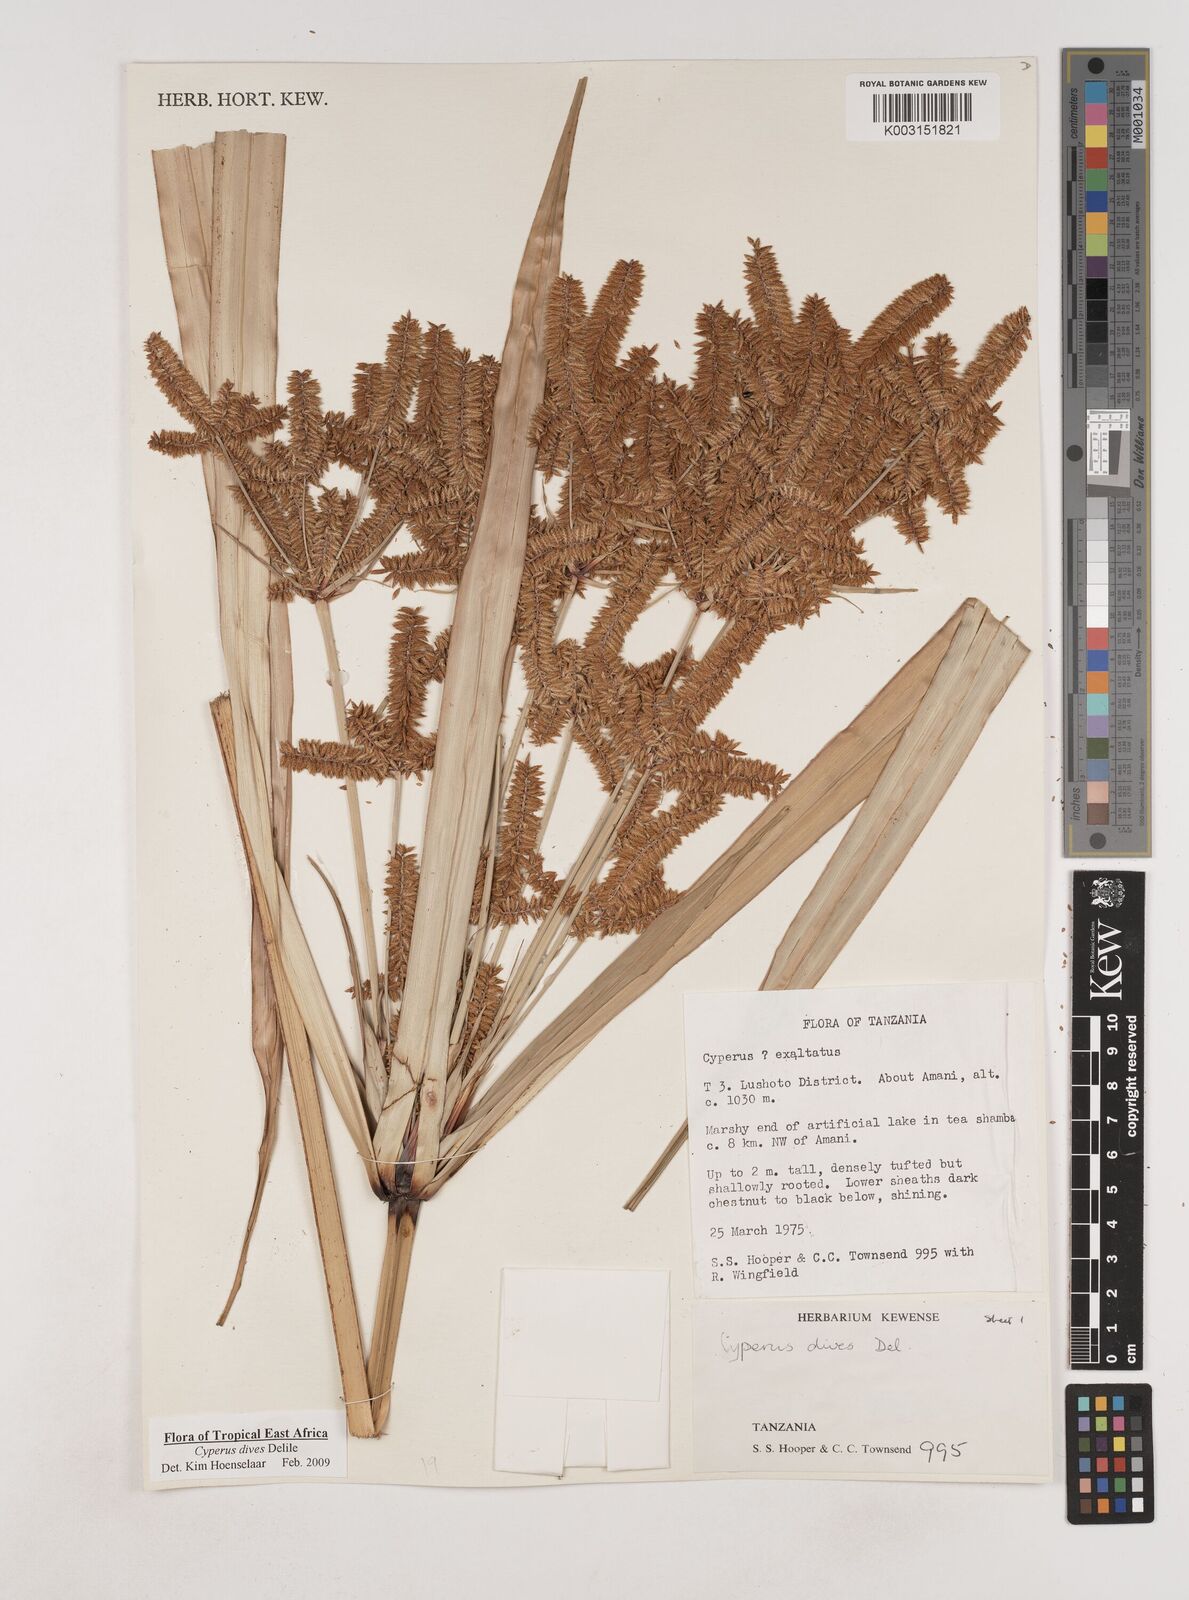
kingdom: Plantae
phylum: Tracheophyta
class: Liliopsida
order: Poales
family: Cyperaceae
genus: Cyperus
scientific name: Cyperus
